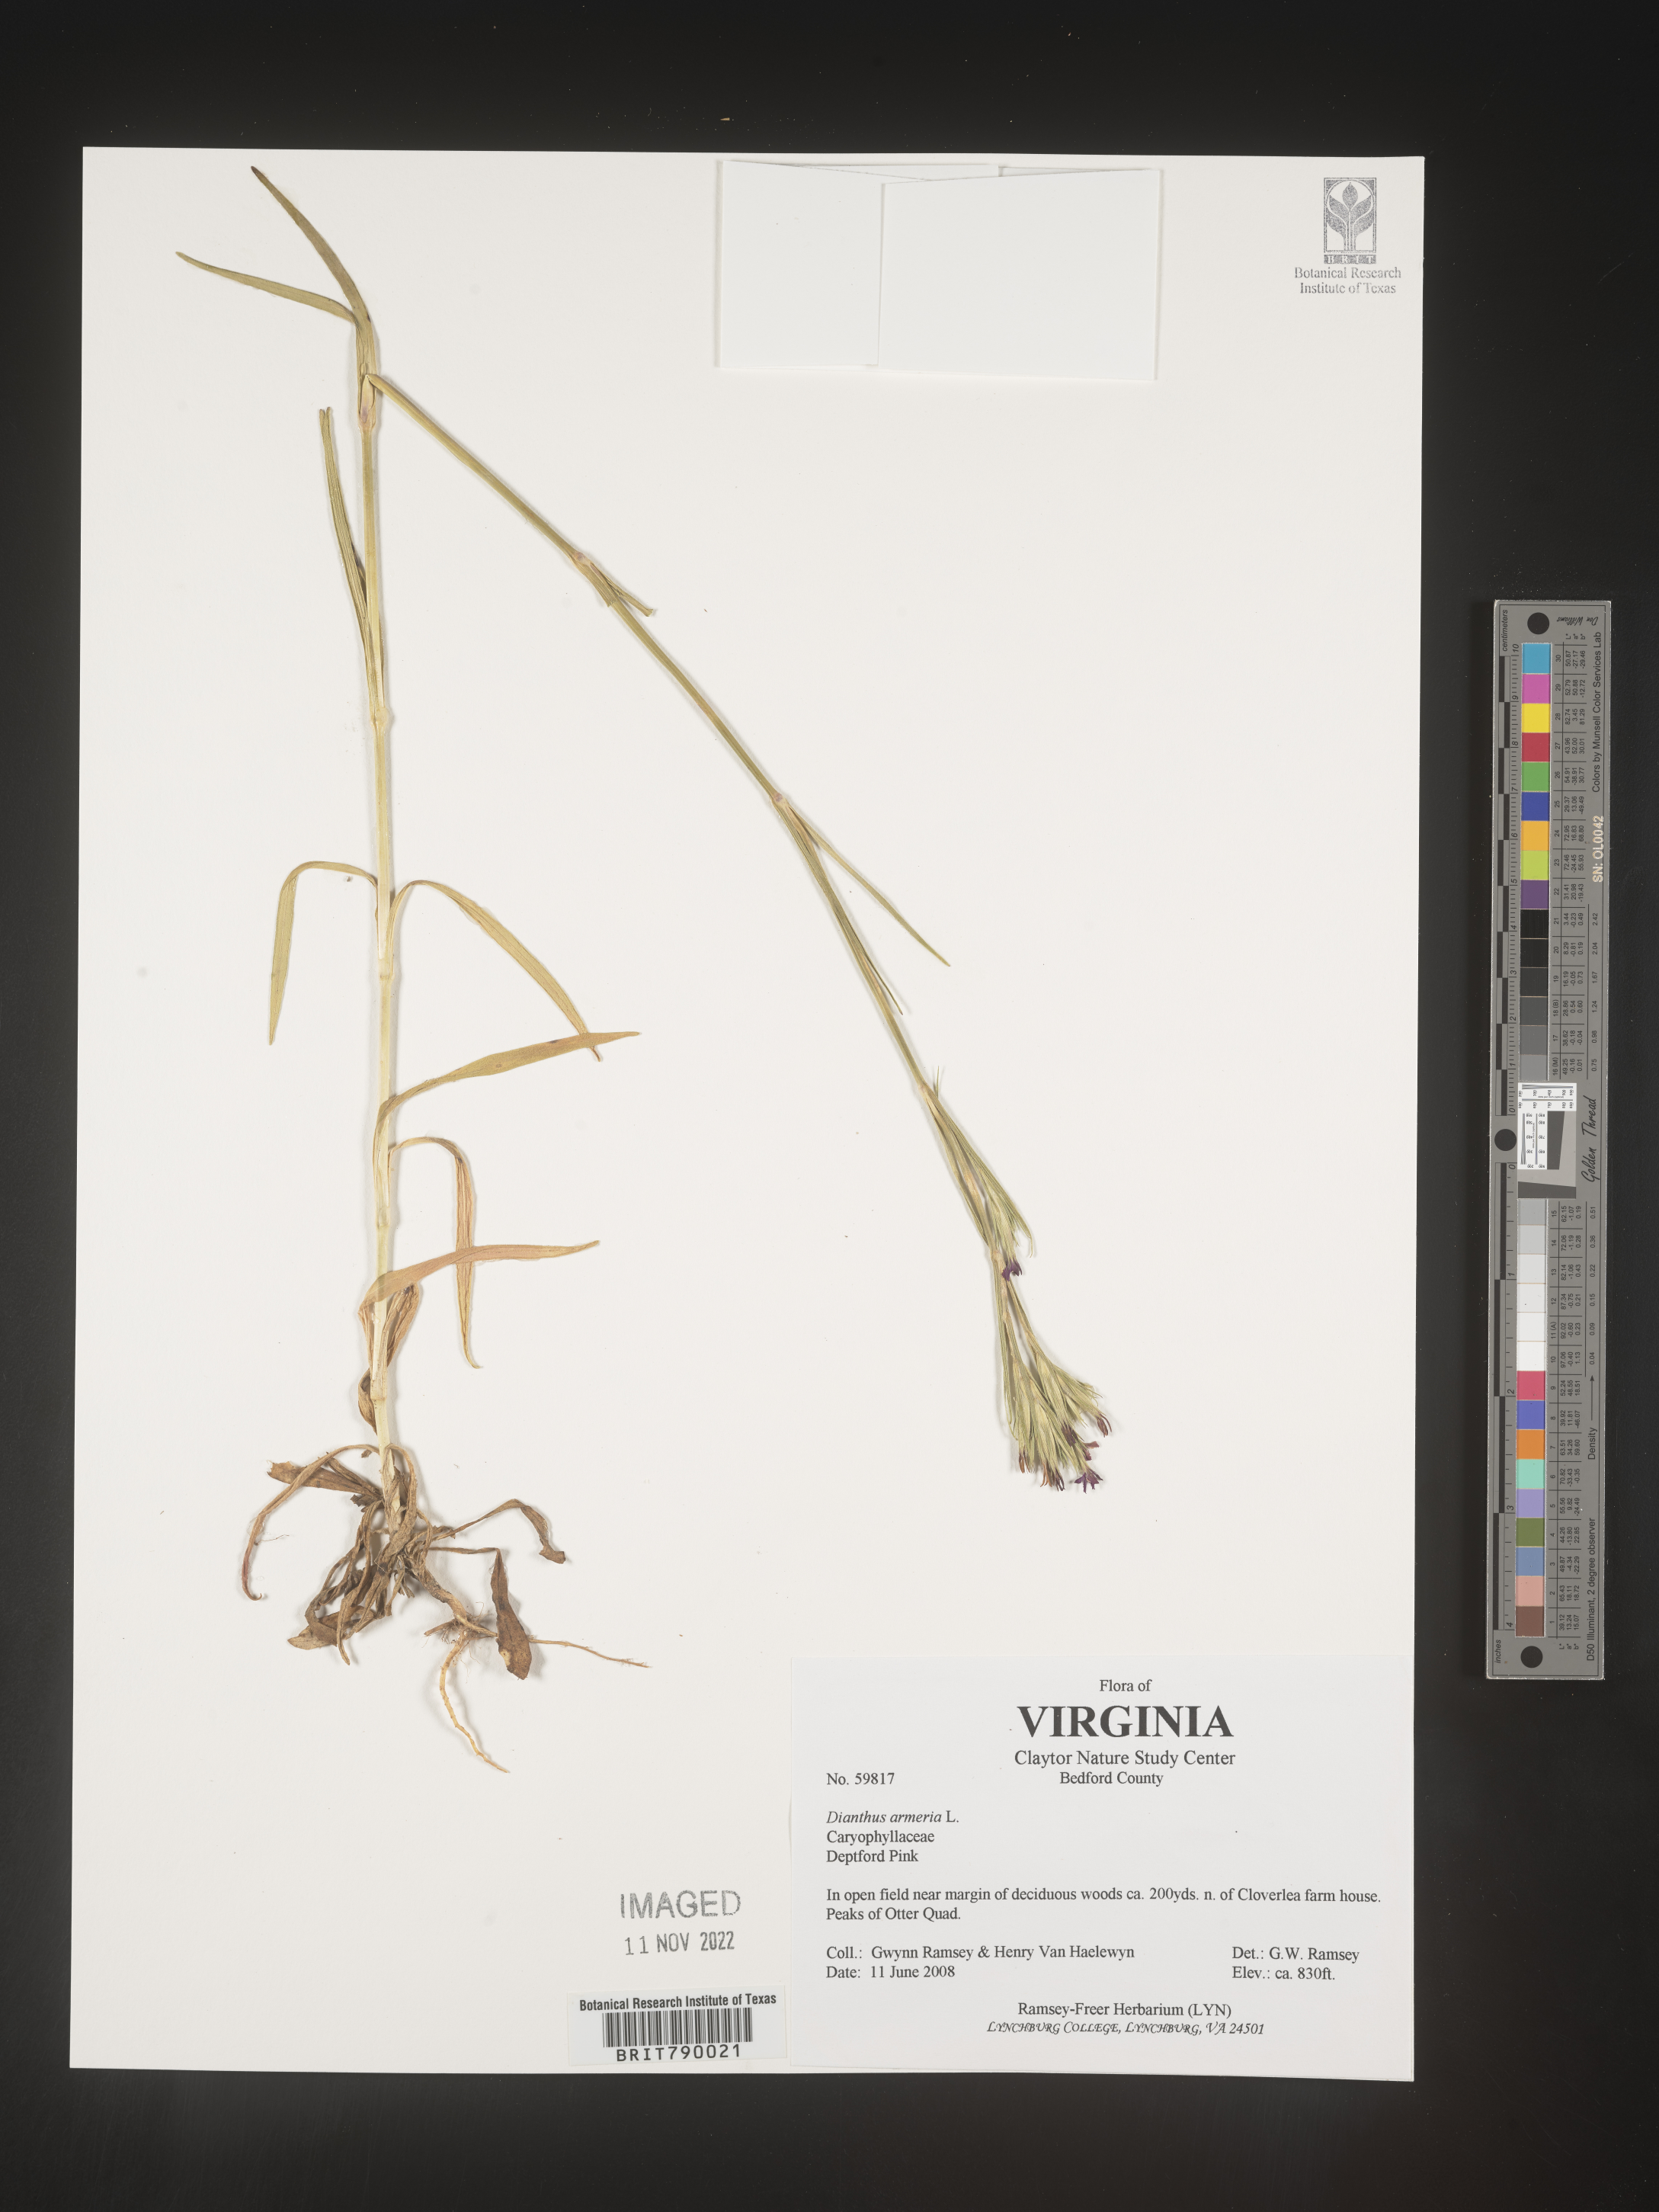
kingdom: Plantae
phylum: Tracheophyta
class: Magnoliopsida
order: Caryophyllales
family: Caryophyllaceae
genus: Dianthus
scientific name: Dianthus armeria
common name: Deptford pink
